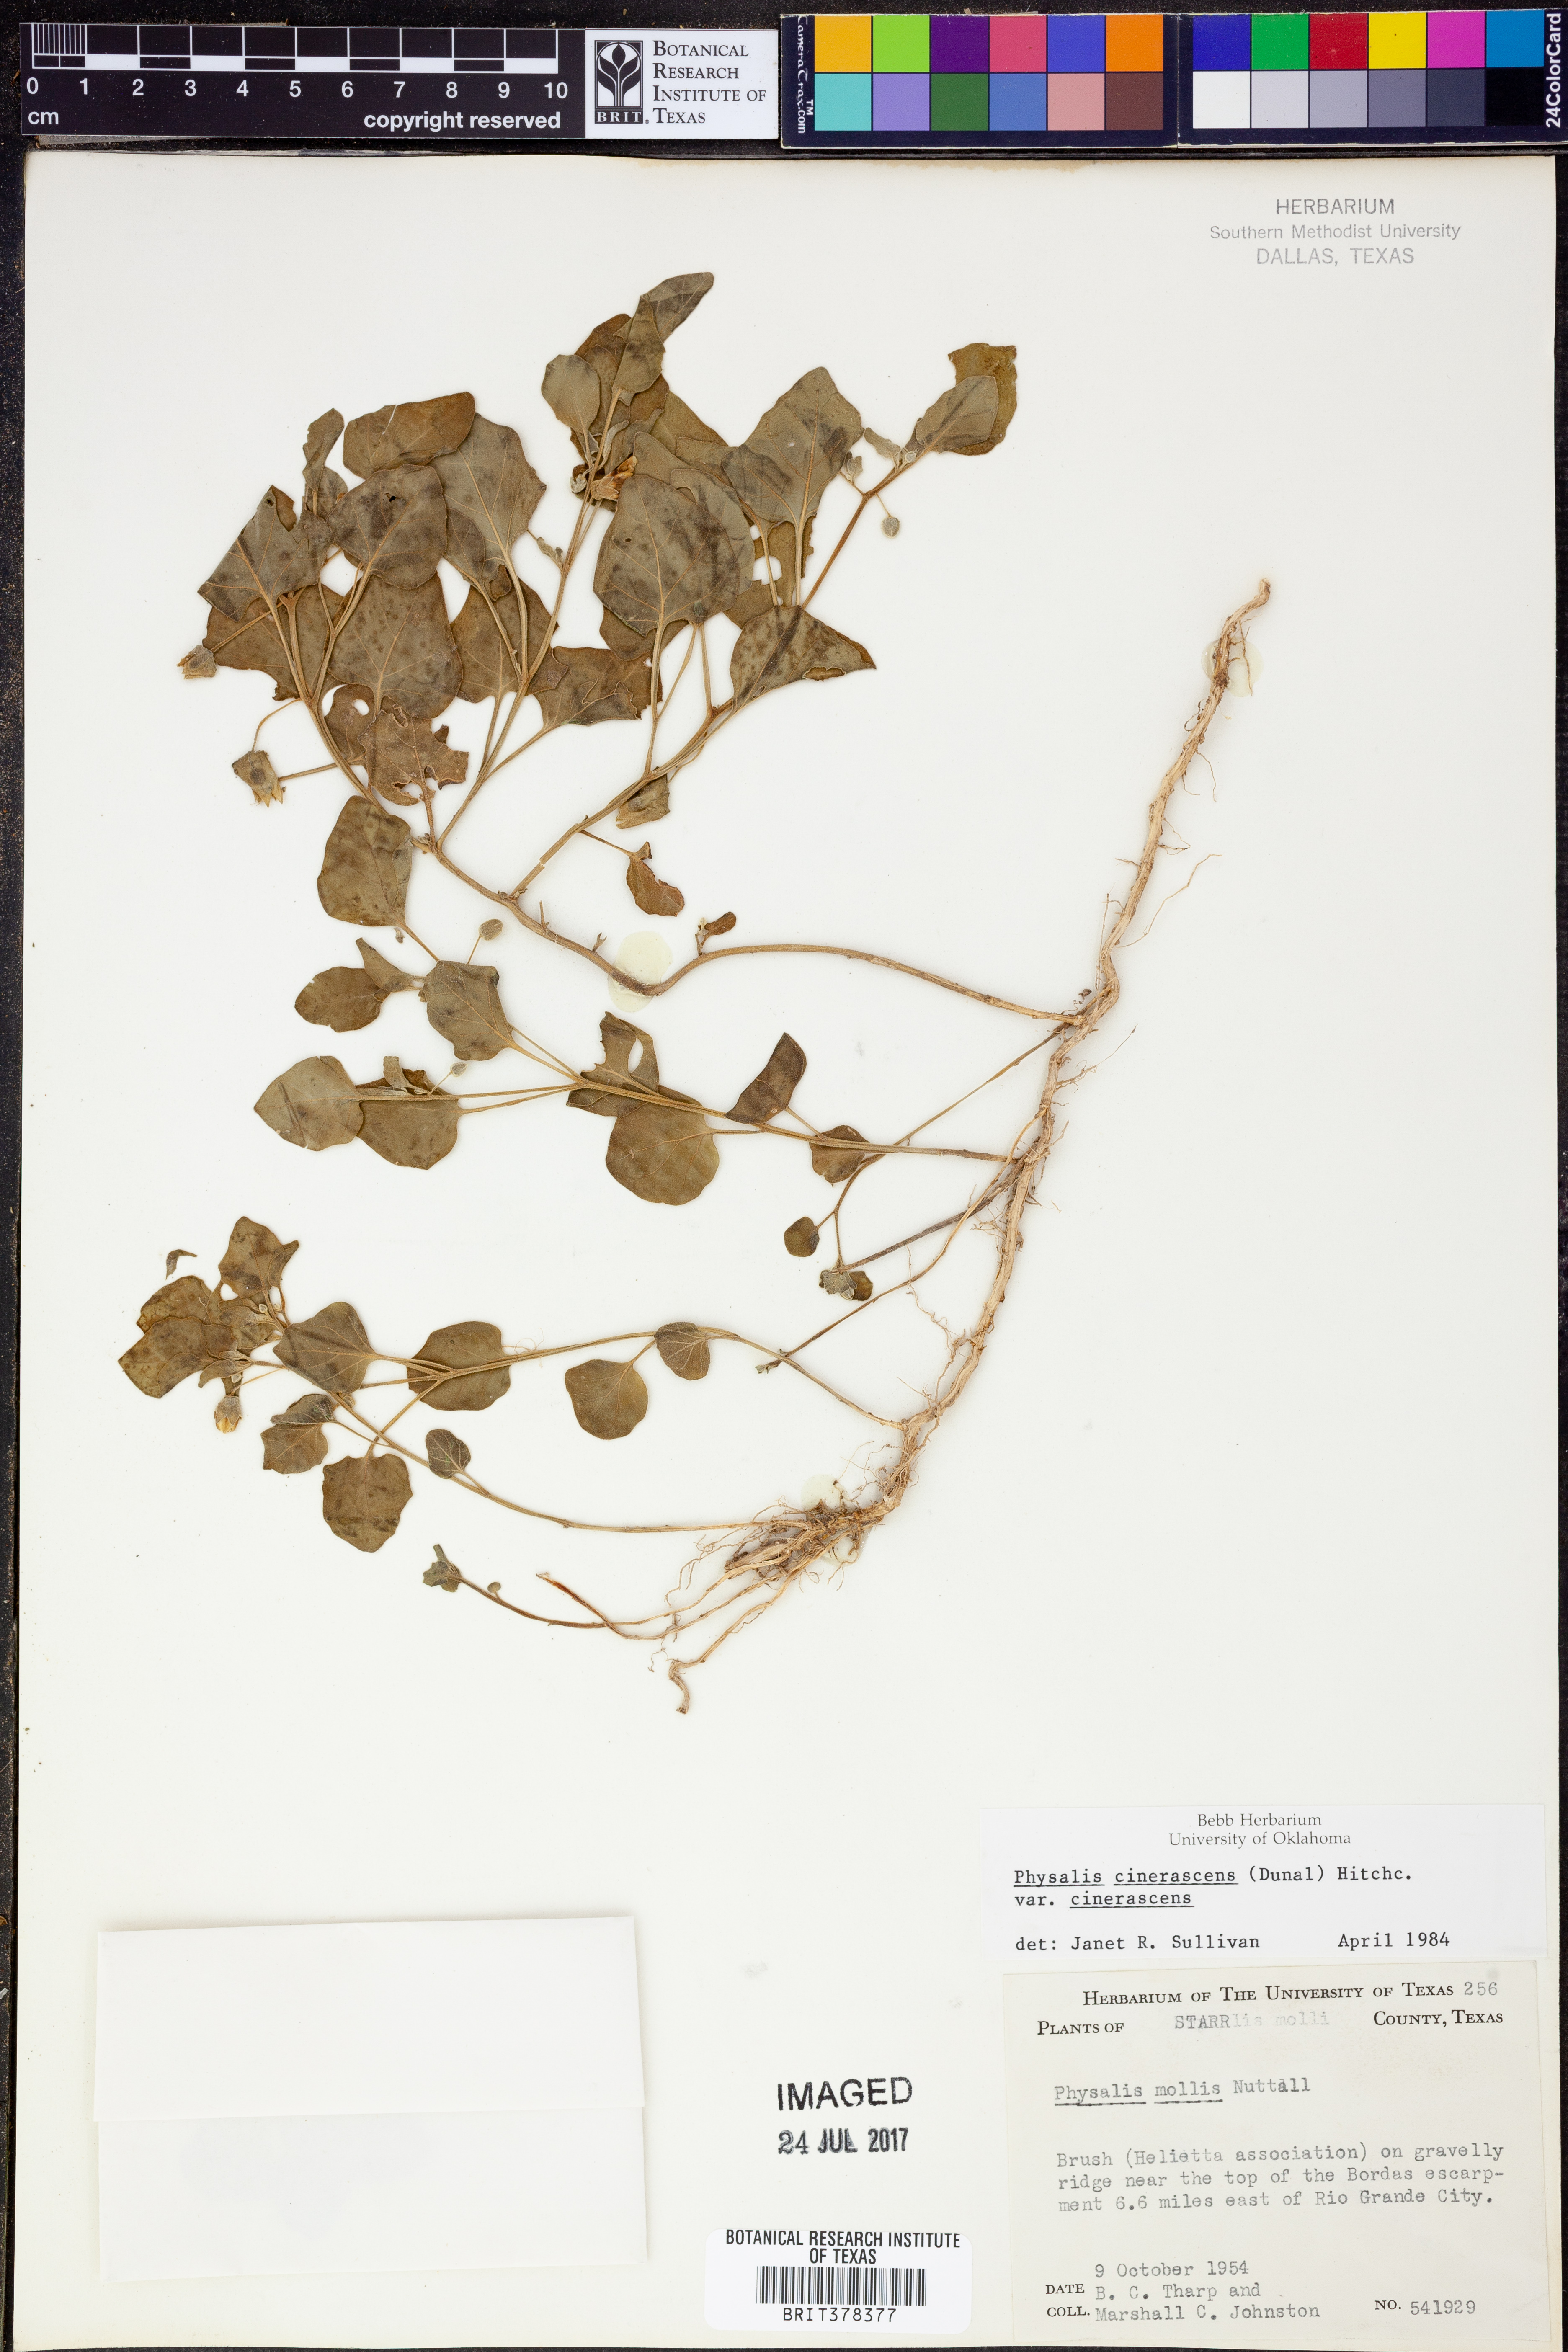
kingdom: Plantae
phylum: Tracheophyta
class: Magnoliopsida
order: Solanales
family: Solanaceae
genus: Physalis
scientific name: Physalis cinerascens
